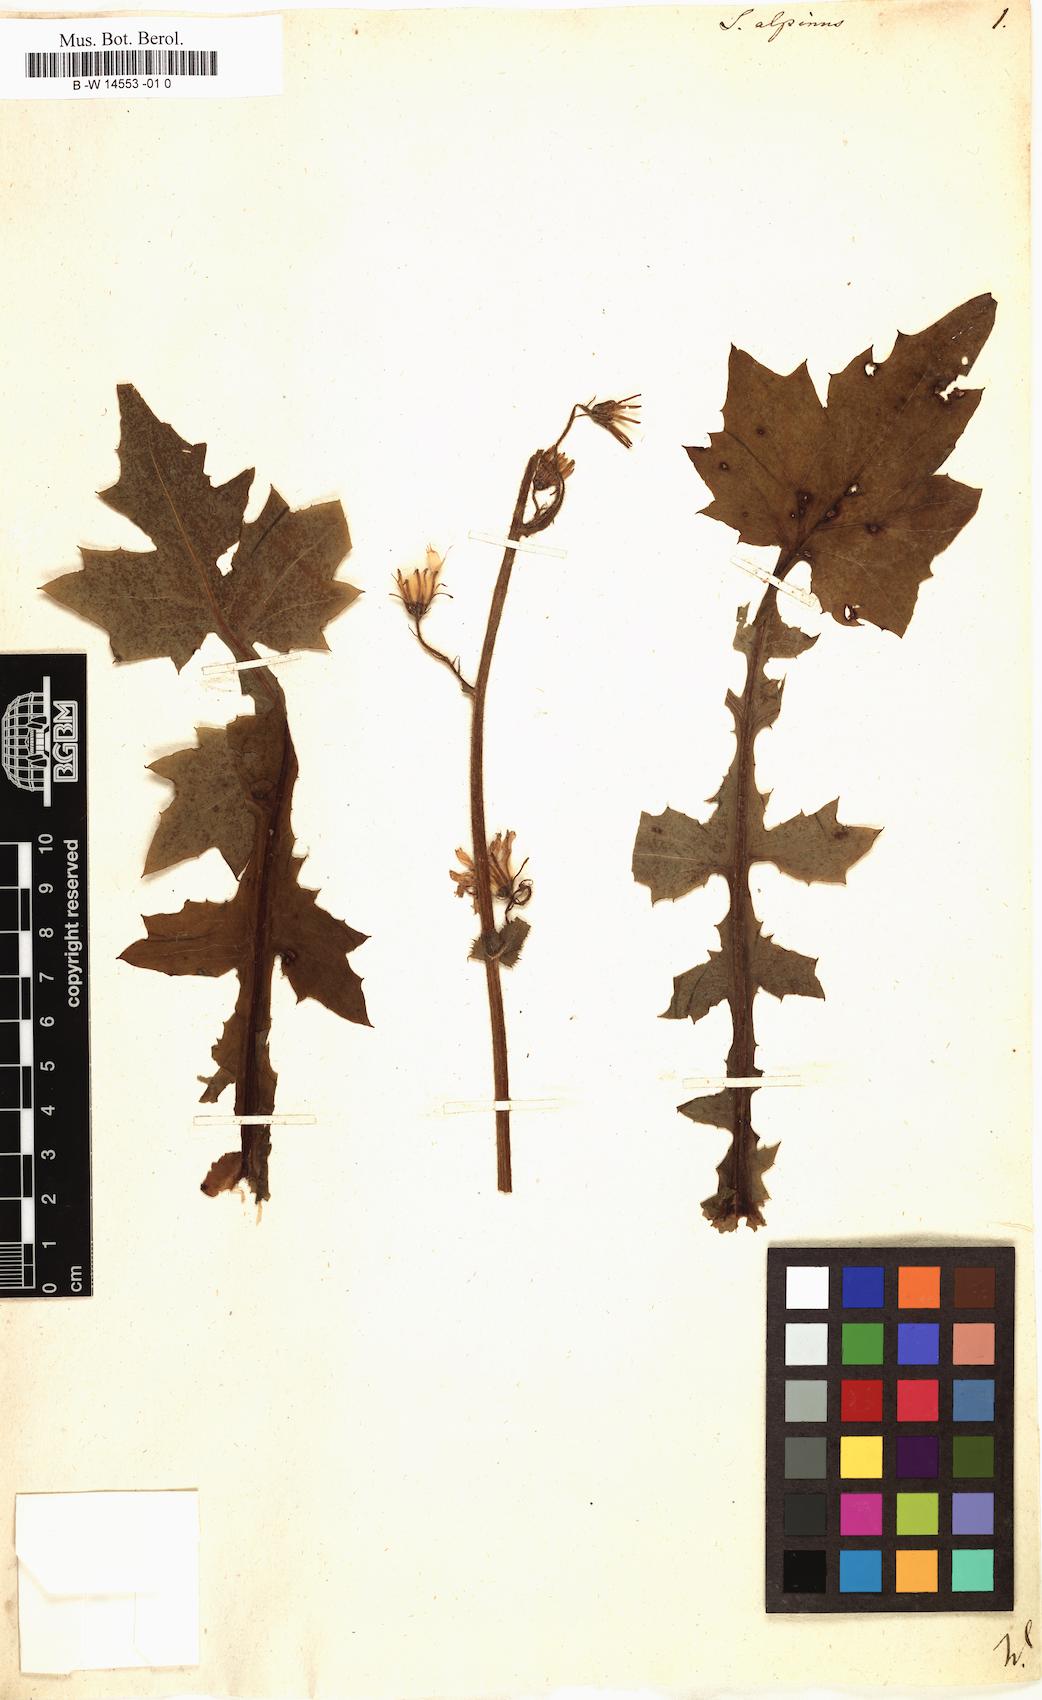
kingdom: Plantae
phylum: Tracheophyta
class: Magnoliopsida
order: Asterales
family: Asteraceae
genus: Cicerbita
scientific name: Cicerbita alpina
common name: Alpine blue-sow-thistle
